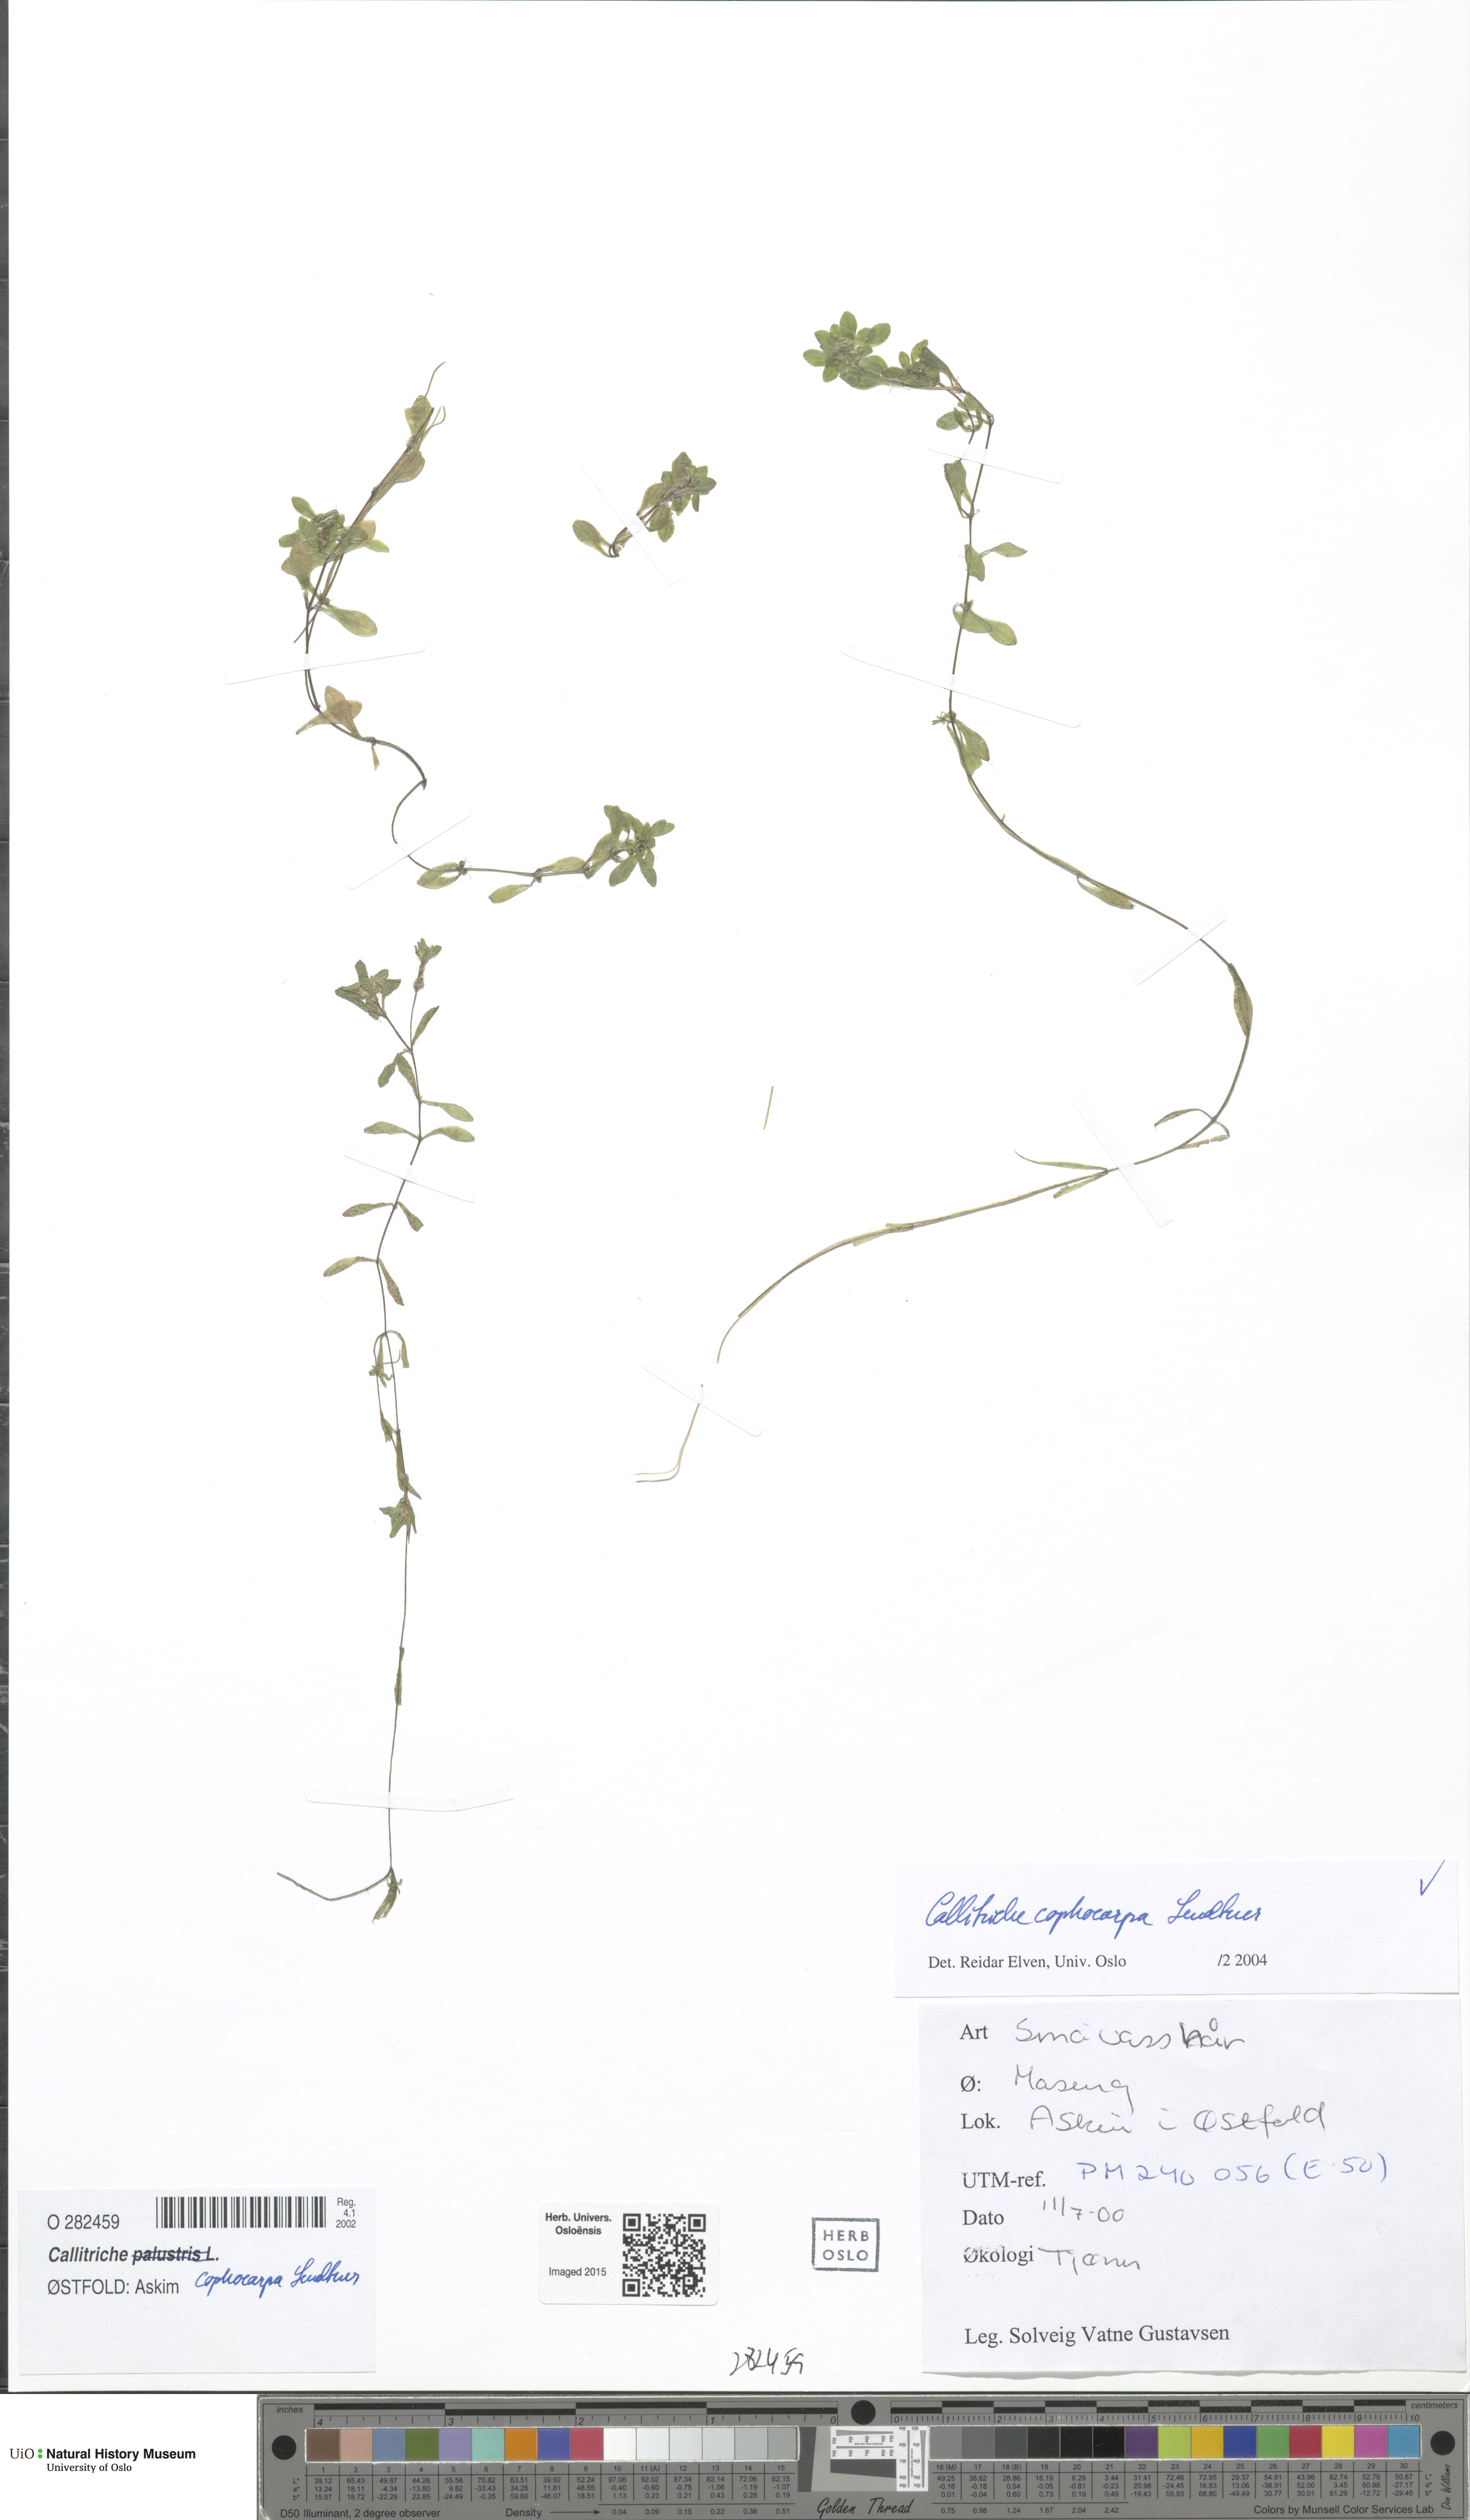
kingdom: Plantae
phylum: Tracheophyta
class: Magnoliopsida
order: Lamiales
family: Plantaginaceae
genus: Callitriche
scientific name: Callitriche cophocarpa
